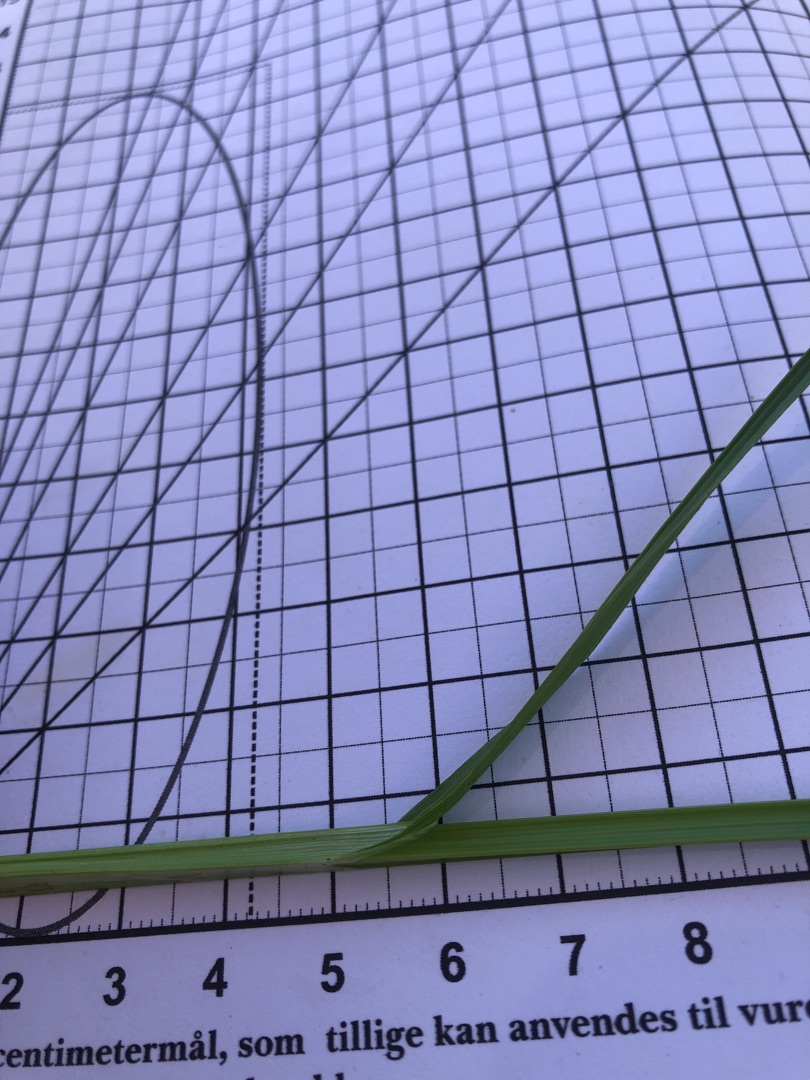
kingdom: Plantae
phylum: Tracheophyta
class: Liliopsida
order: Poales
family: Cyperaceae
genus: Carex
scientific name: Carex otrubae
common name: Sylt-star
